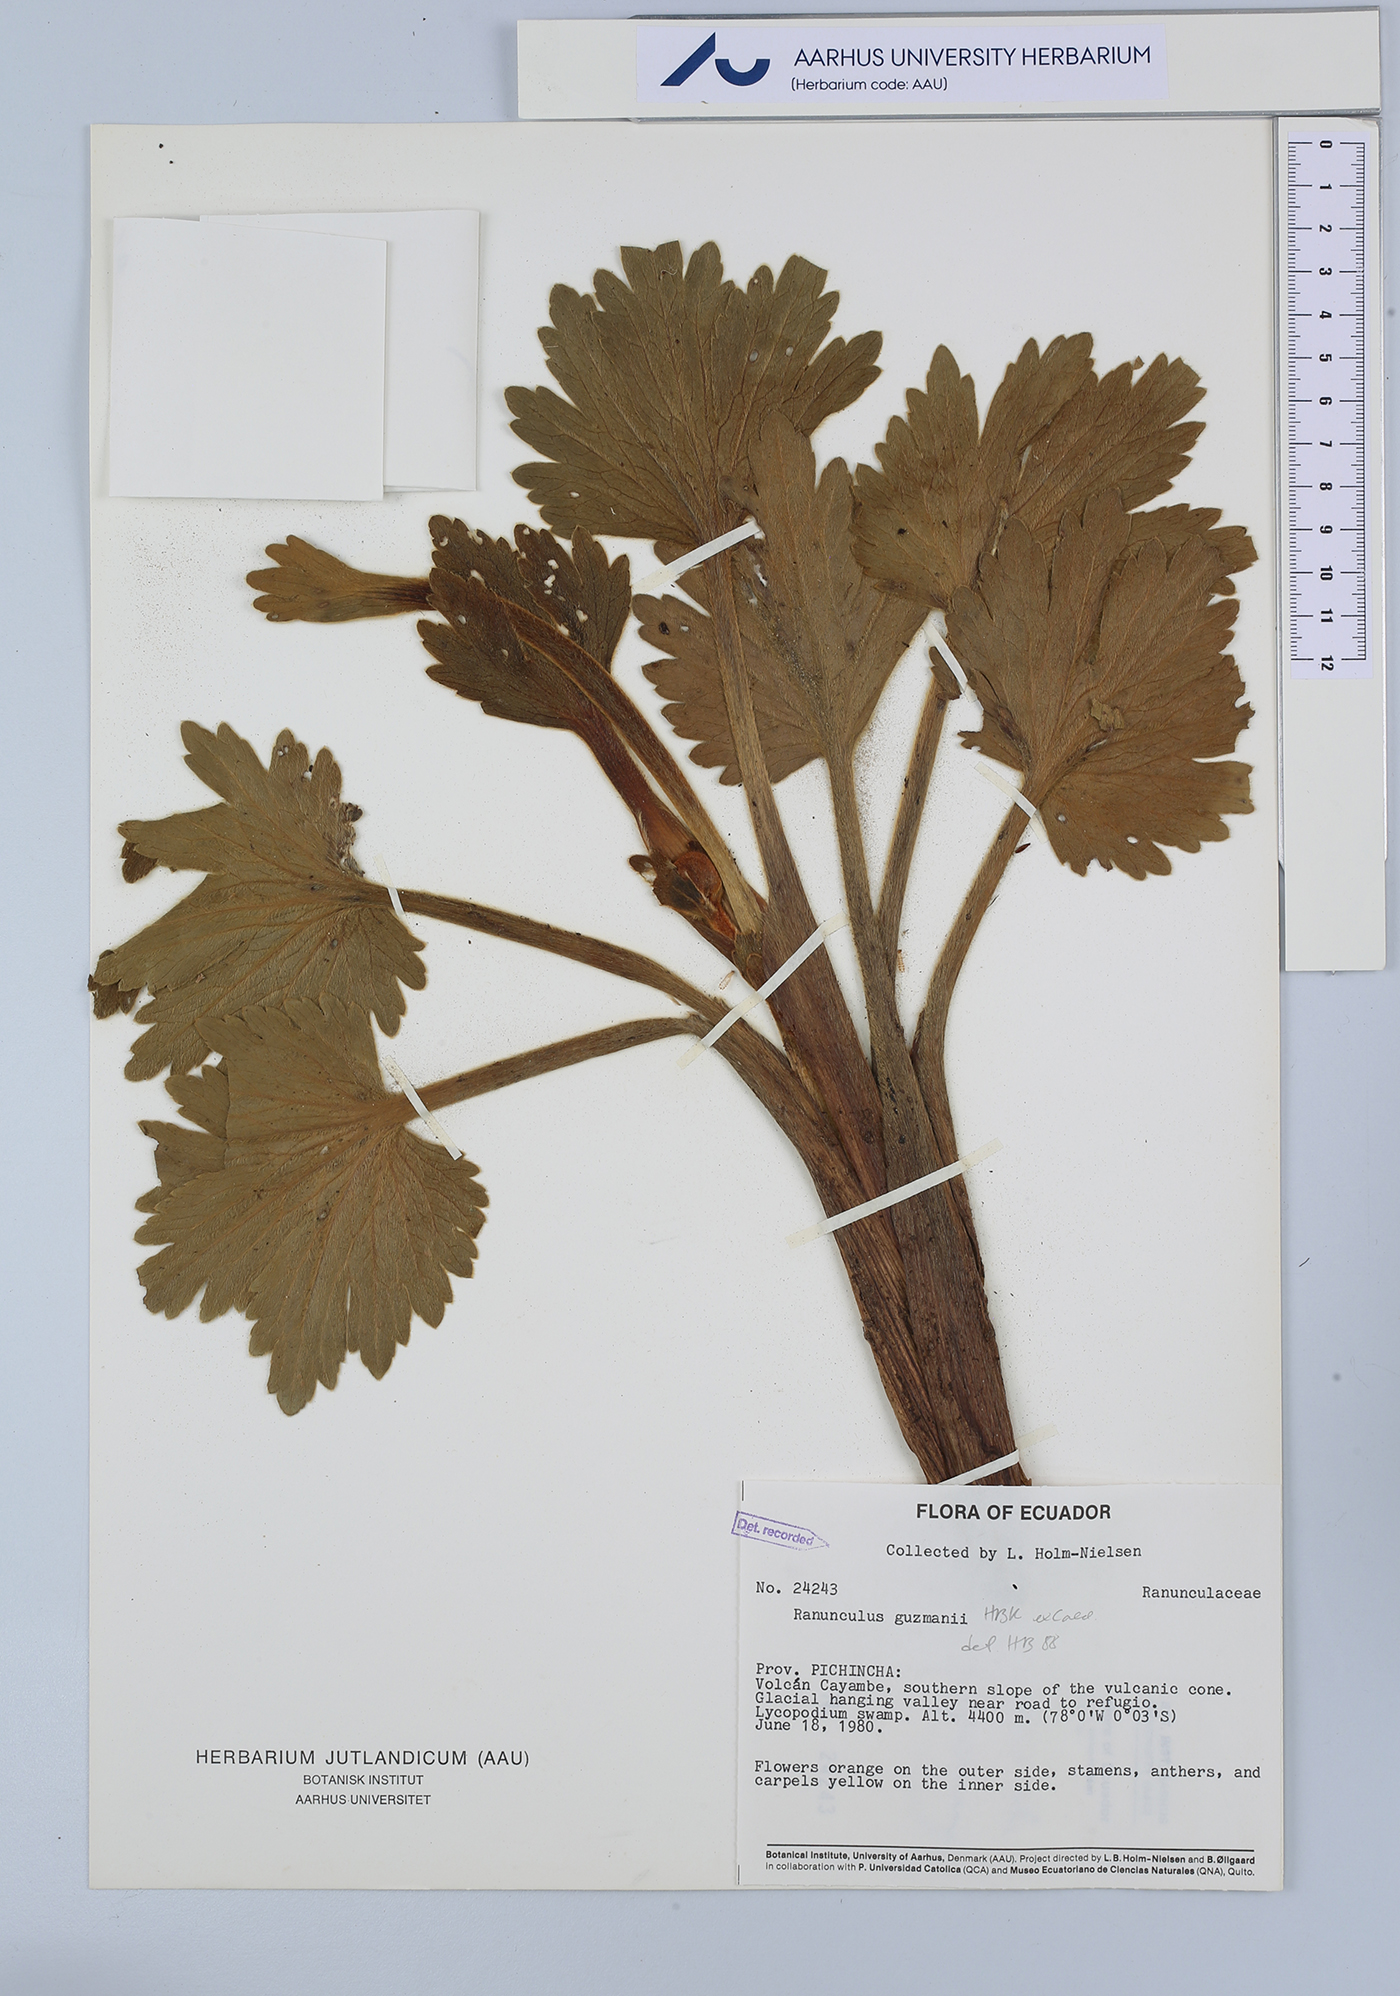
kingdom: Plantae
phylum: Tracheophyta
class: Magnoliopsida
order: Ranunculales
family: Ranunculaceae
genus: Krapfia
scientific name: Krapfia ranunculina
